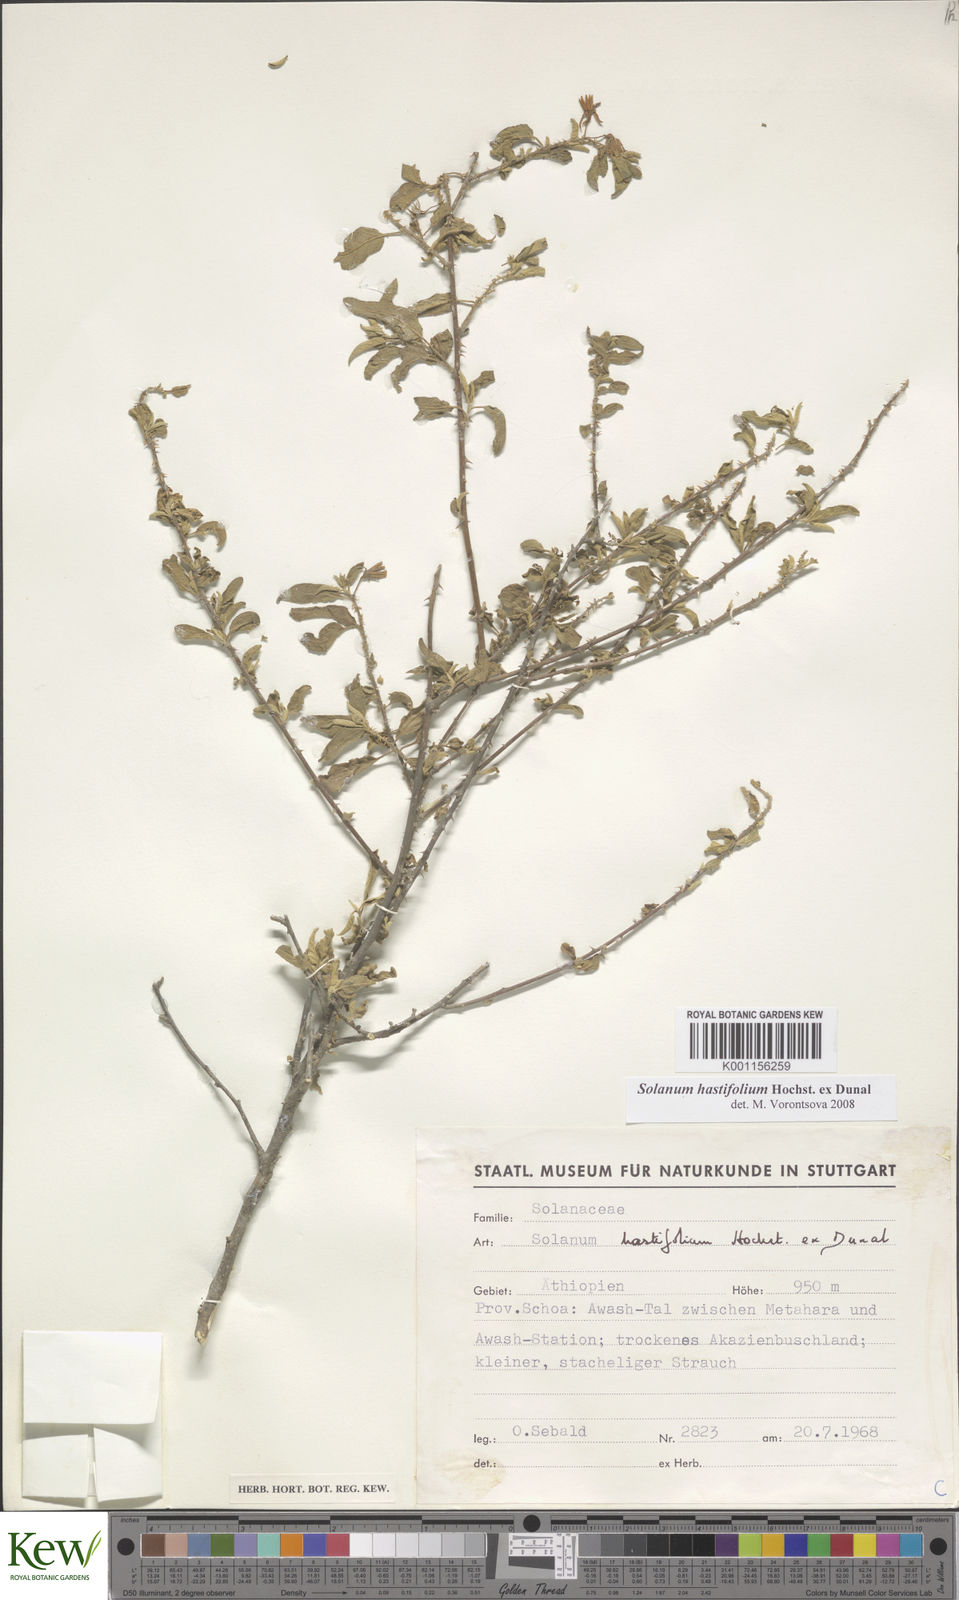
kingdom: Plantae
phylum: Tracheophyta
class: Magnoliopsida
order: Solanales
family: Solanaceae
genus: Solanum
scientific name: Solanum hastifolium
